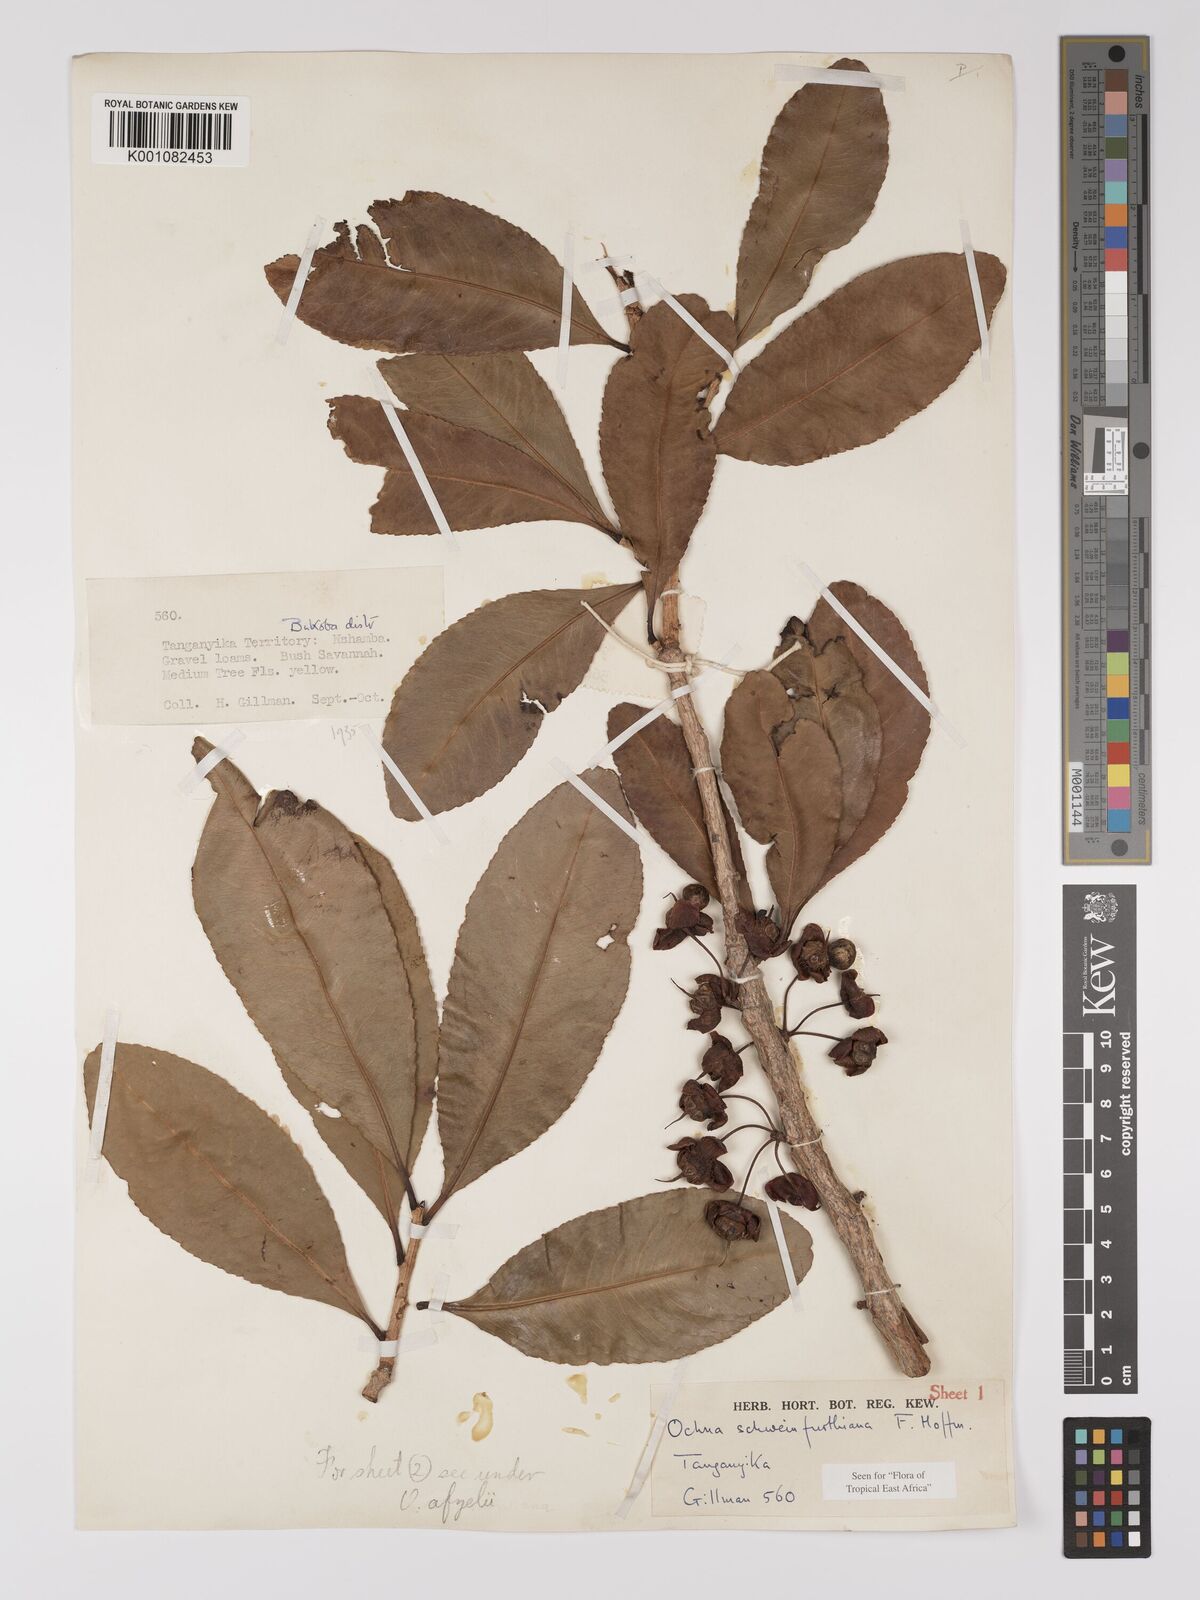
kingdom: Plantae
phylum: Tracheophyta
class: Magnoliopsida
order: Malpighiales
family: Ochnaceae
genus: Ochna
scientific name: Ochna schweinfurthiana
